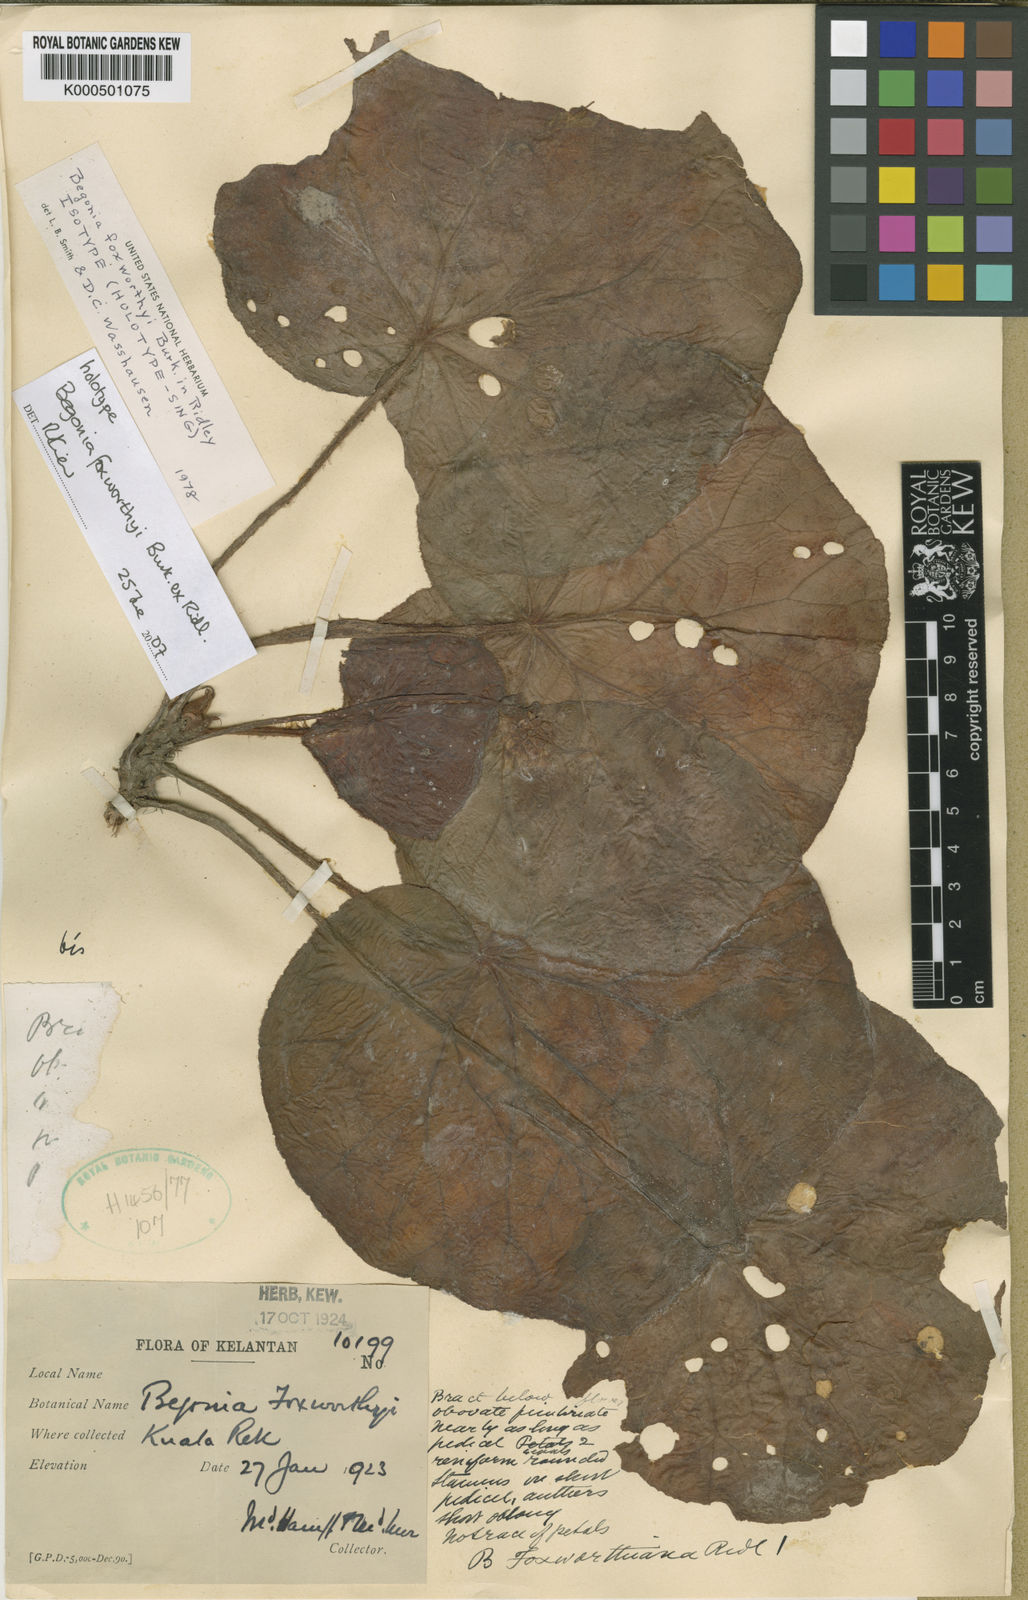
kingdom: Plantae
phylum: Tracheophyta
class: Magnoliopsida
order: Cucurbitales
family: Begoniaceae
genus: Begonia
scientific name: Begonia foxworthyi
